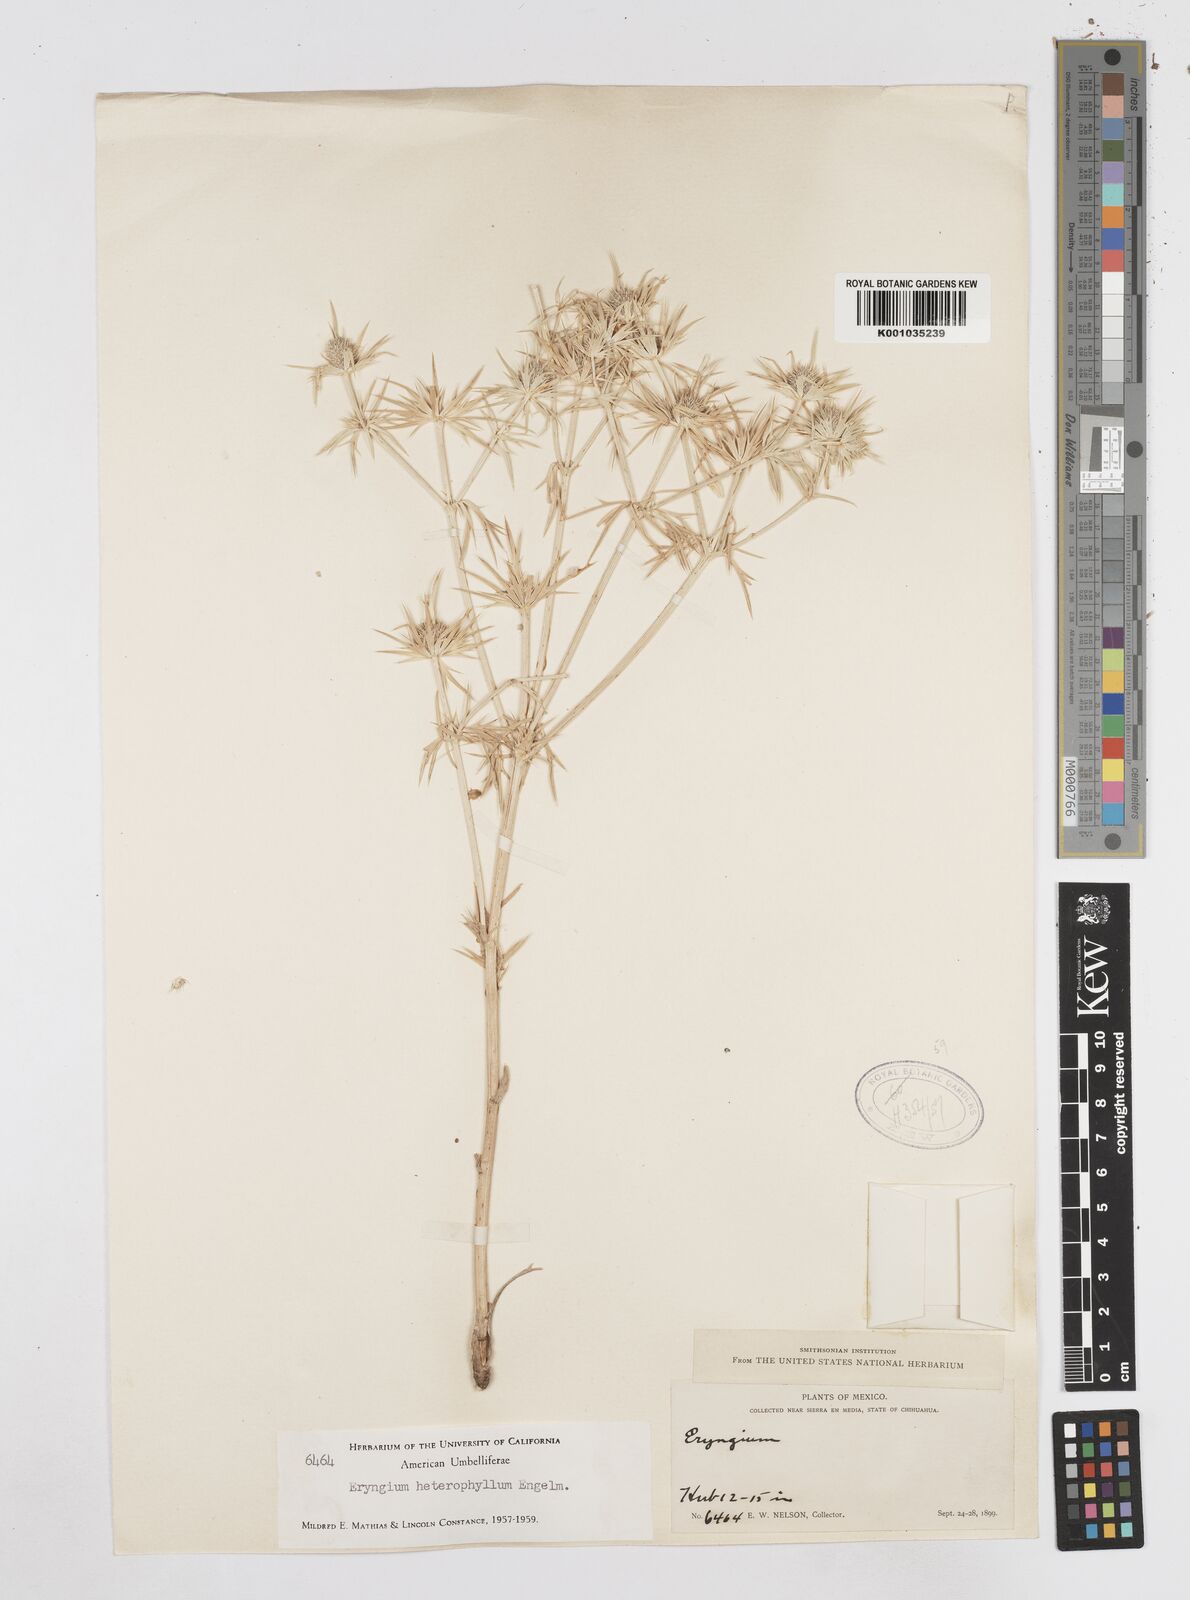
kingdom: Plantae
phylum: Tracheophyta
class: Magnoliopsida
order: Apiales
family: Apiaceae
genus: Eryngium
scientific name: Eryngium heterophyllum
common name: Mexican thistle
